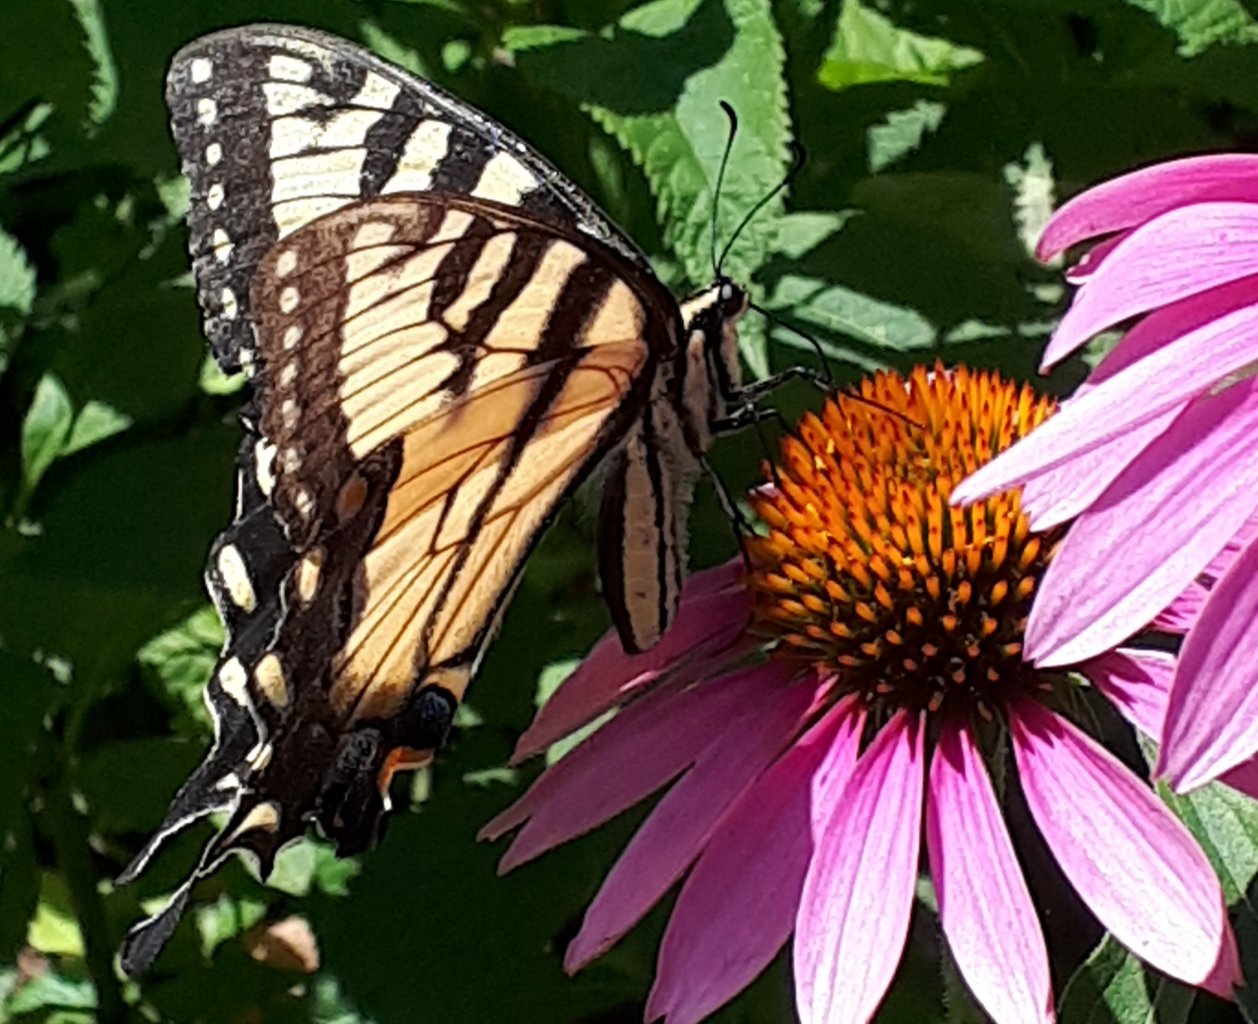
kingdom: Animalia
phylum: Arthropoda
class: Insecta
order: Lepidoptera
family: Papilionidae
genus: Pterourus
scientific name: Pterourus
